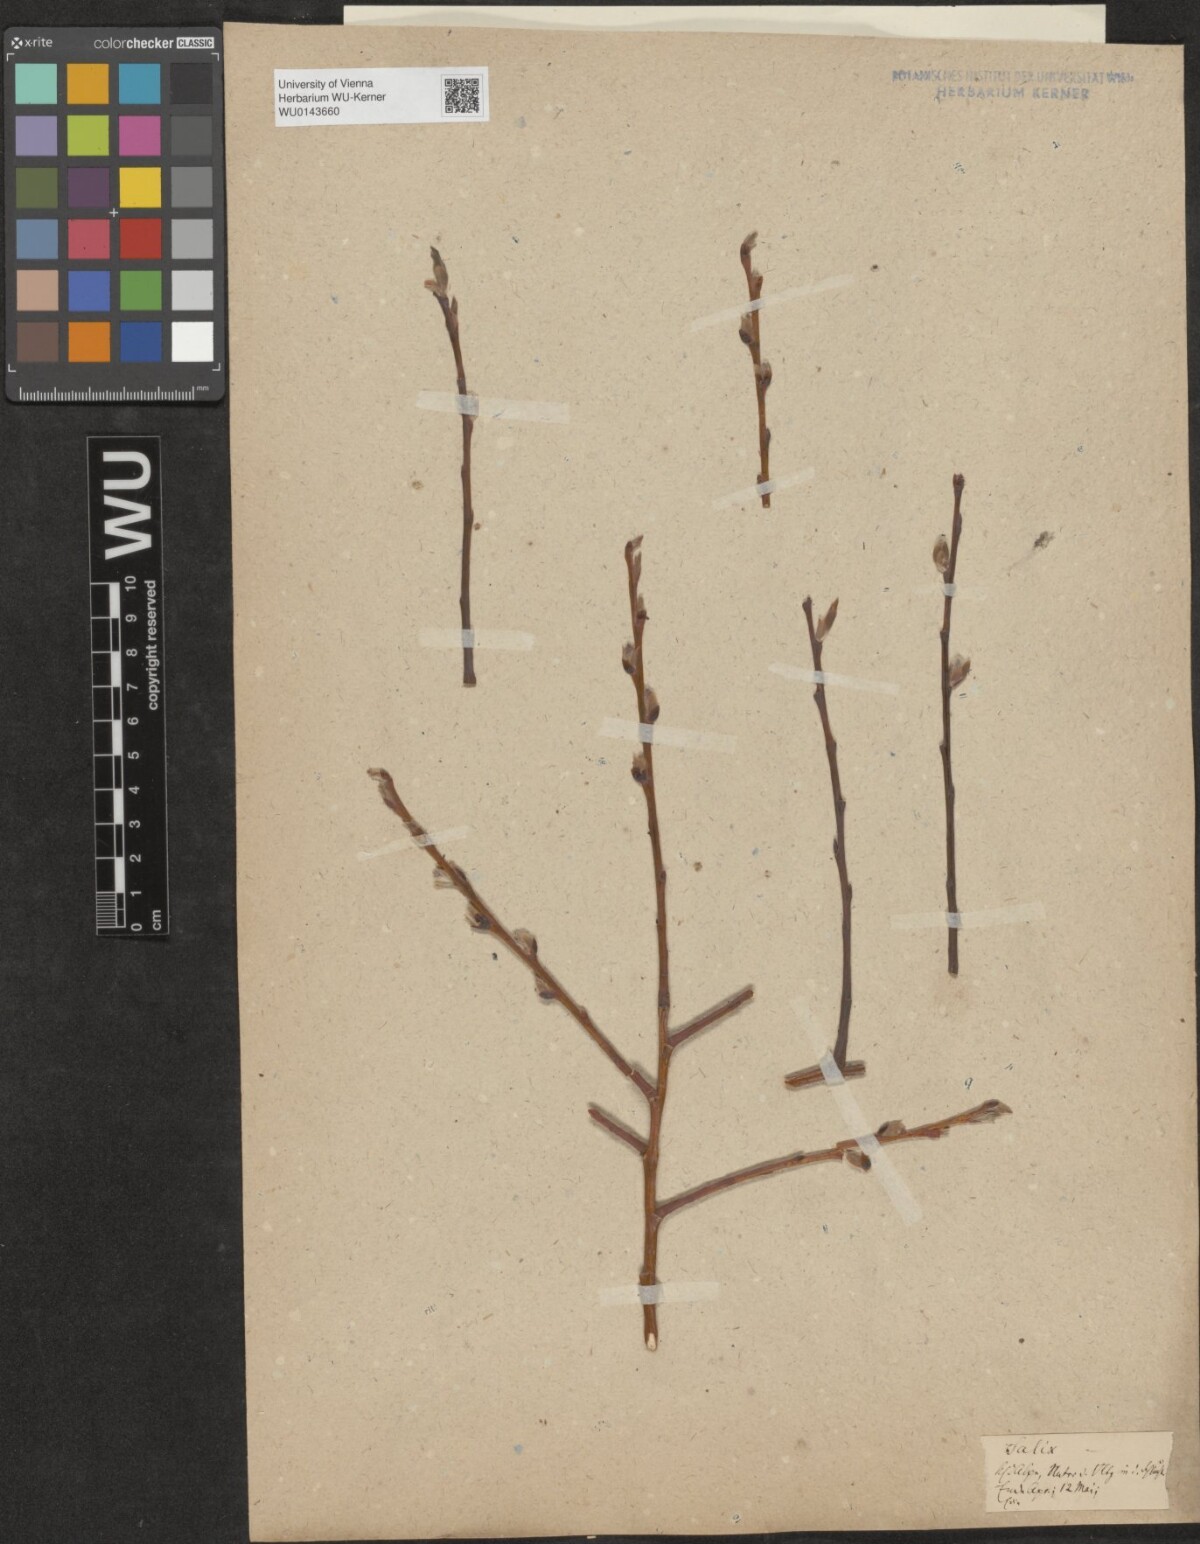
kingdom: Plantae
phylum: Tracheophyta
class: Magnoliopsida
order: Malpighiales
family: Salicaceae
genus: Salix
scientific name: Salix
